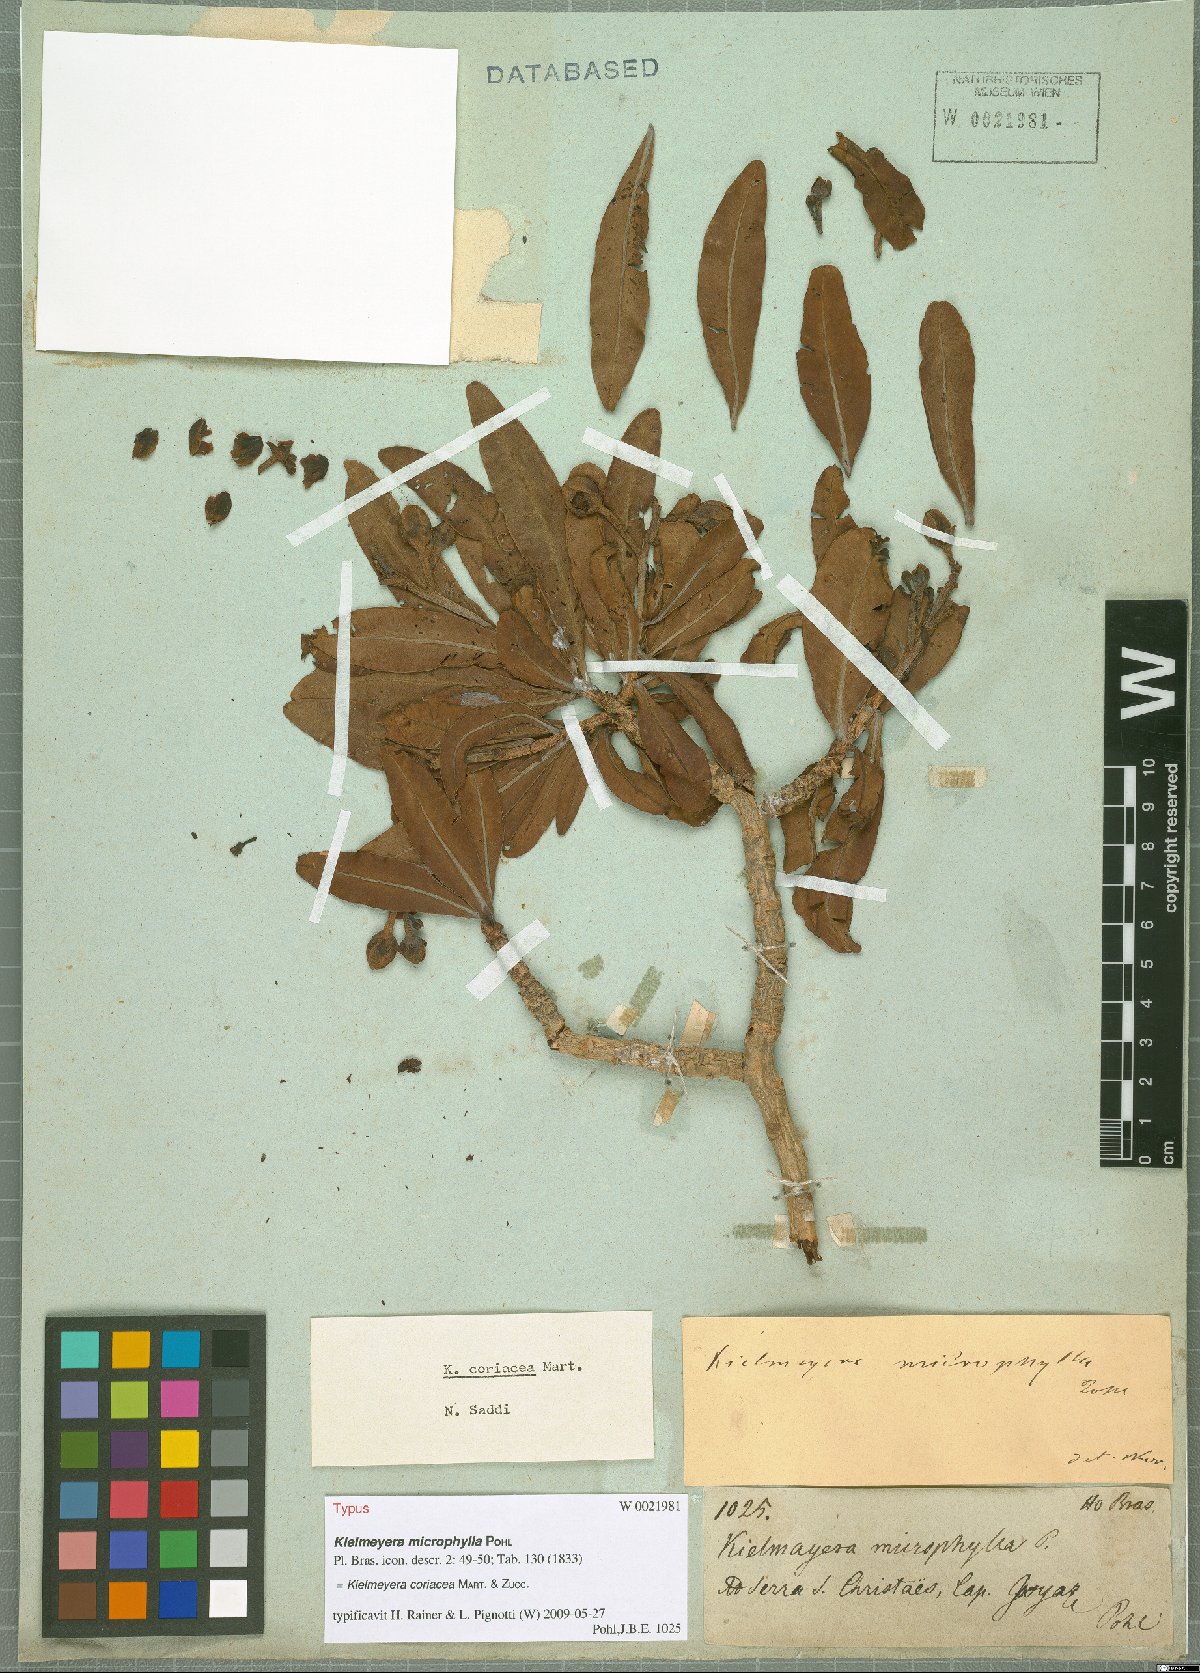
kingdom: Plantae
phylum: Tracheophyta
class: Magnoliopsida
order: Malpighiales
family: Calophyllaceae
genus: Kielmeyera
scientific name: Kielmeyera coriacea
